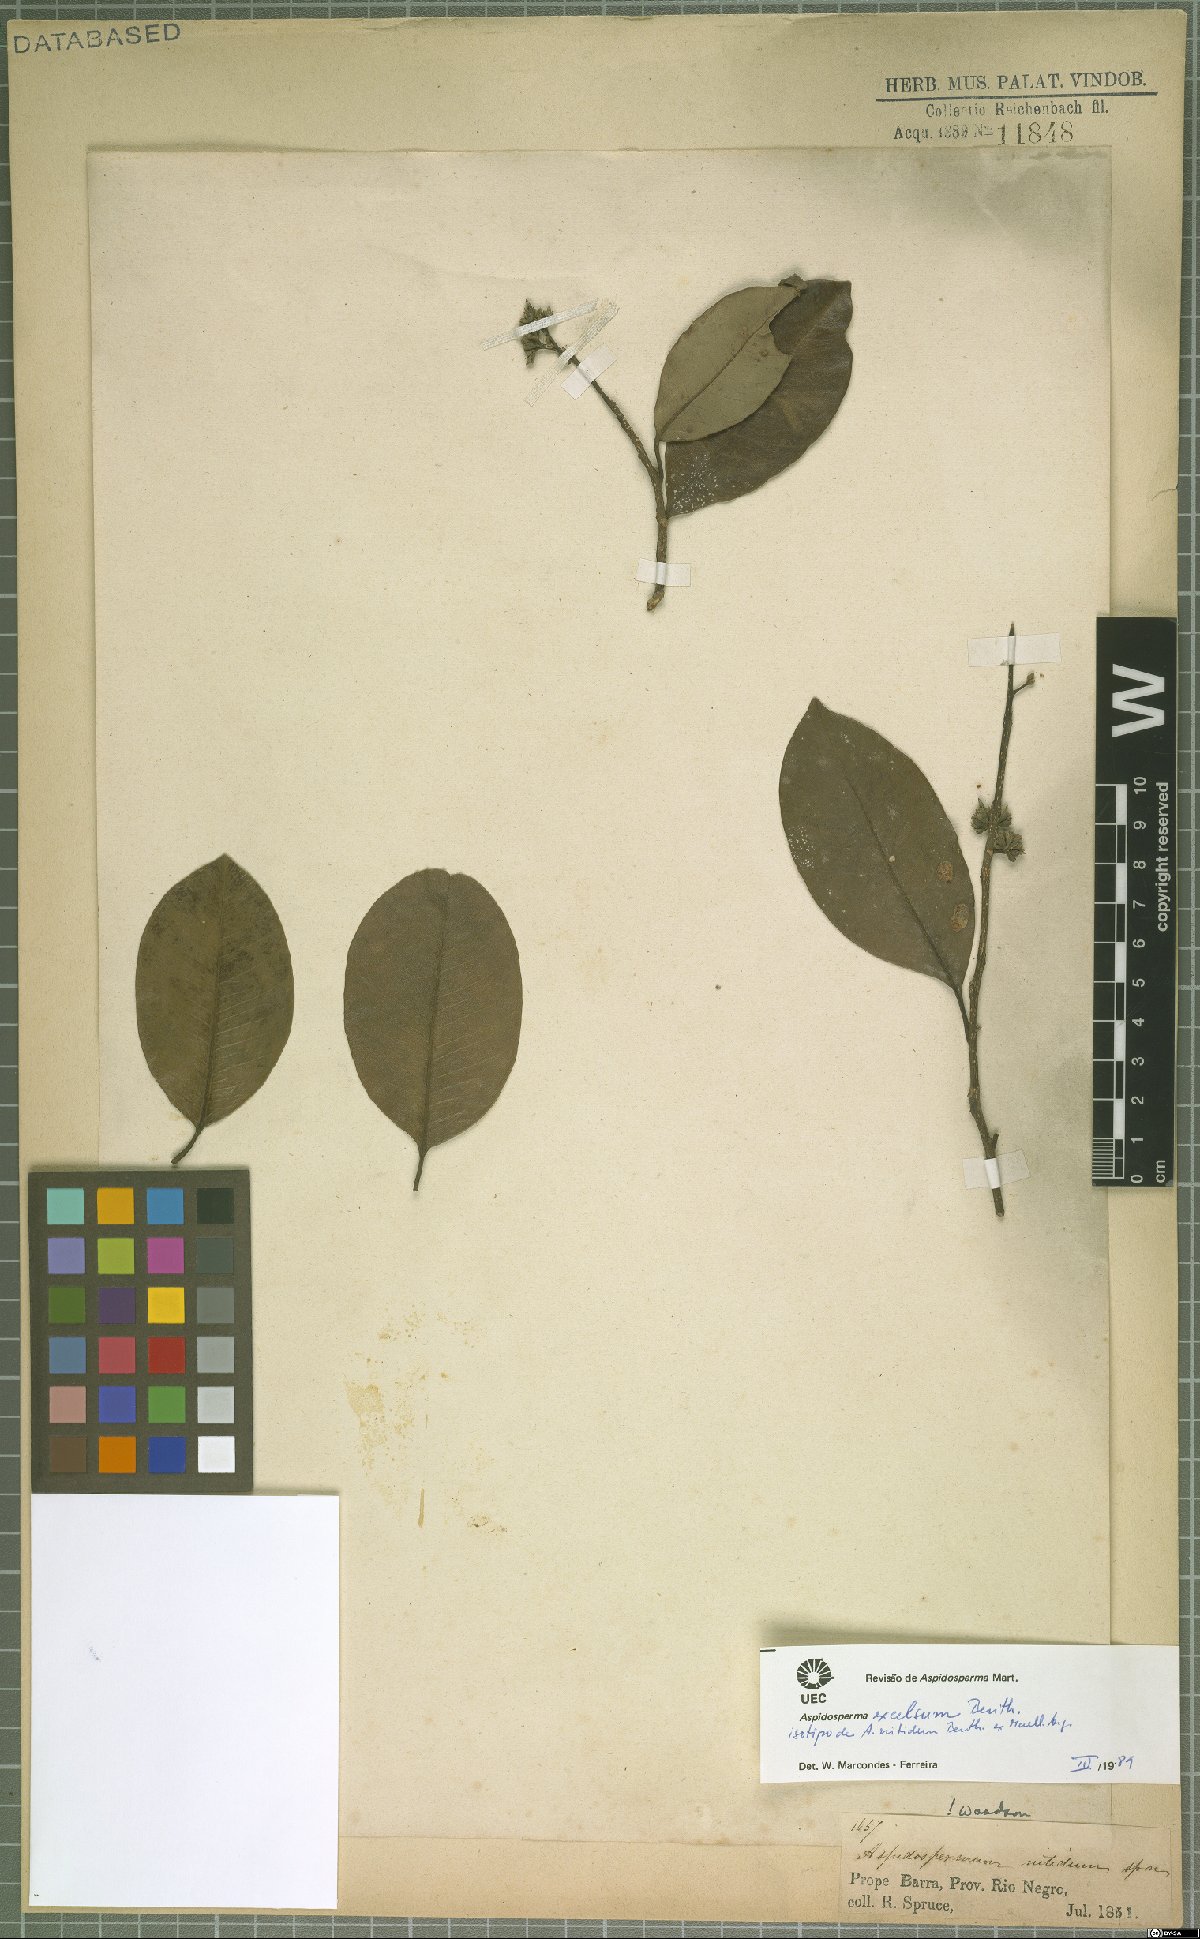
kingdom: Plantae
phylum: Tracheophyta
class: Magnoliopsida
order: Gentianales
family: Apocynaceae
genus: Aspidosperma
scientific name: Aspidosperma excelsum
